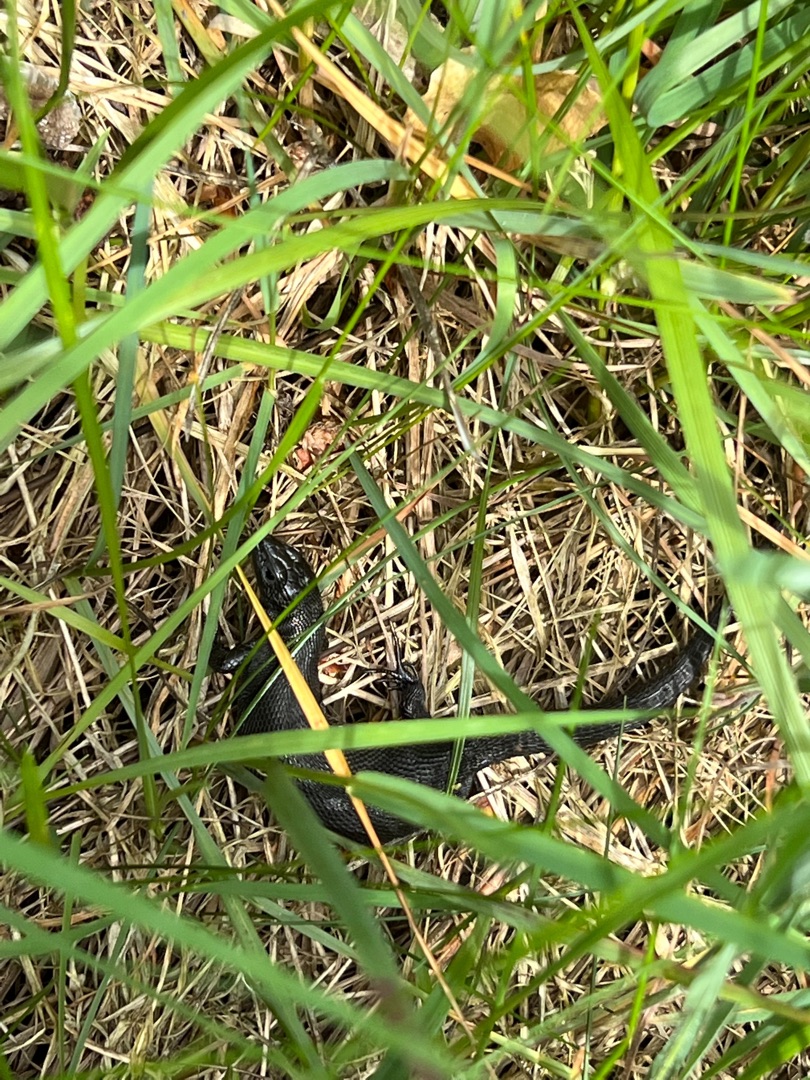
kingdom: Animalia
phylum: Chordata
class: Squamata
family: Lacertidae
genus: Zootoca
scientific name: Zootoca vivipara
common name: Skovfirben
